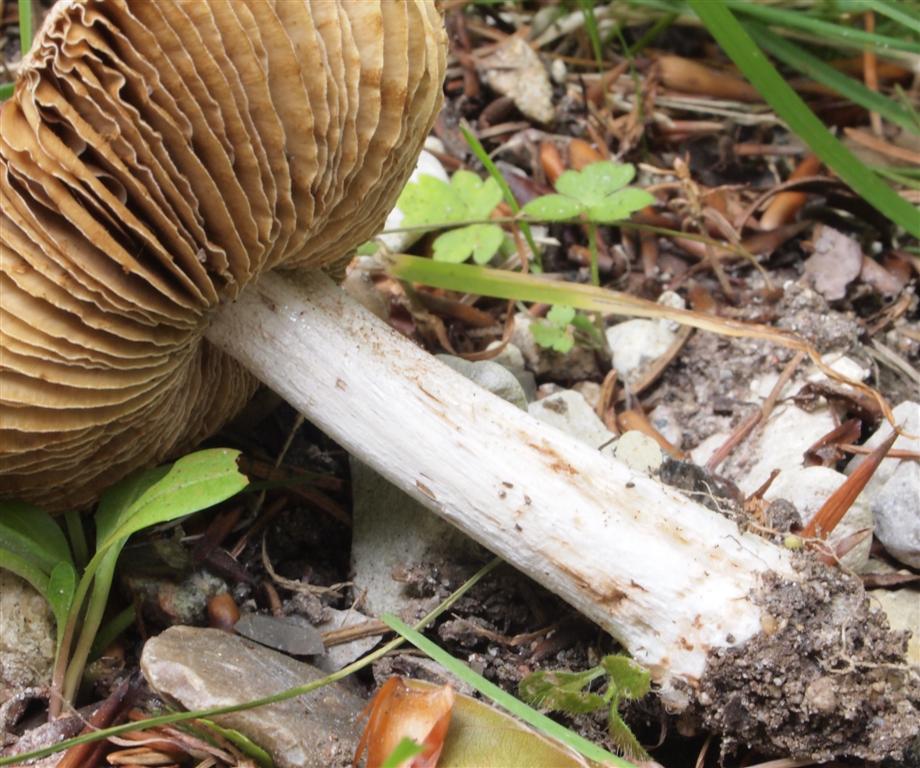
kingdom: Fungi
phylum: Basidiomycota
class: Agaricomycetes
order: Agaricales
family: Inocybaceae
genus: Pseudosperma
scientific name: Pseudosperma rimosum
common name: gulbladet trævlhat
